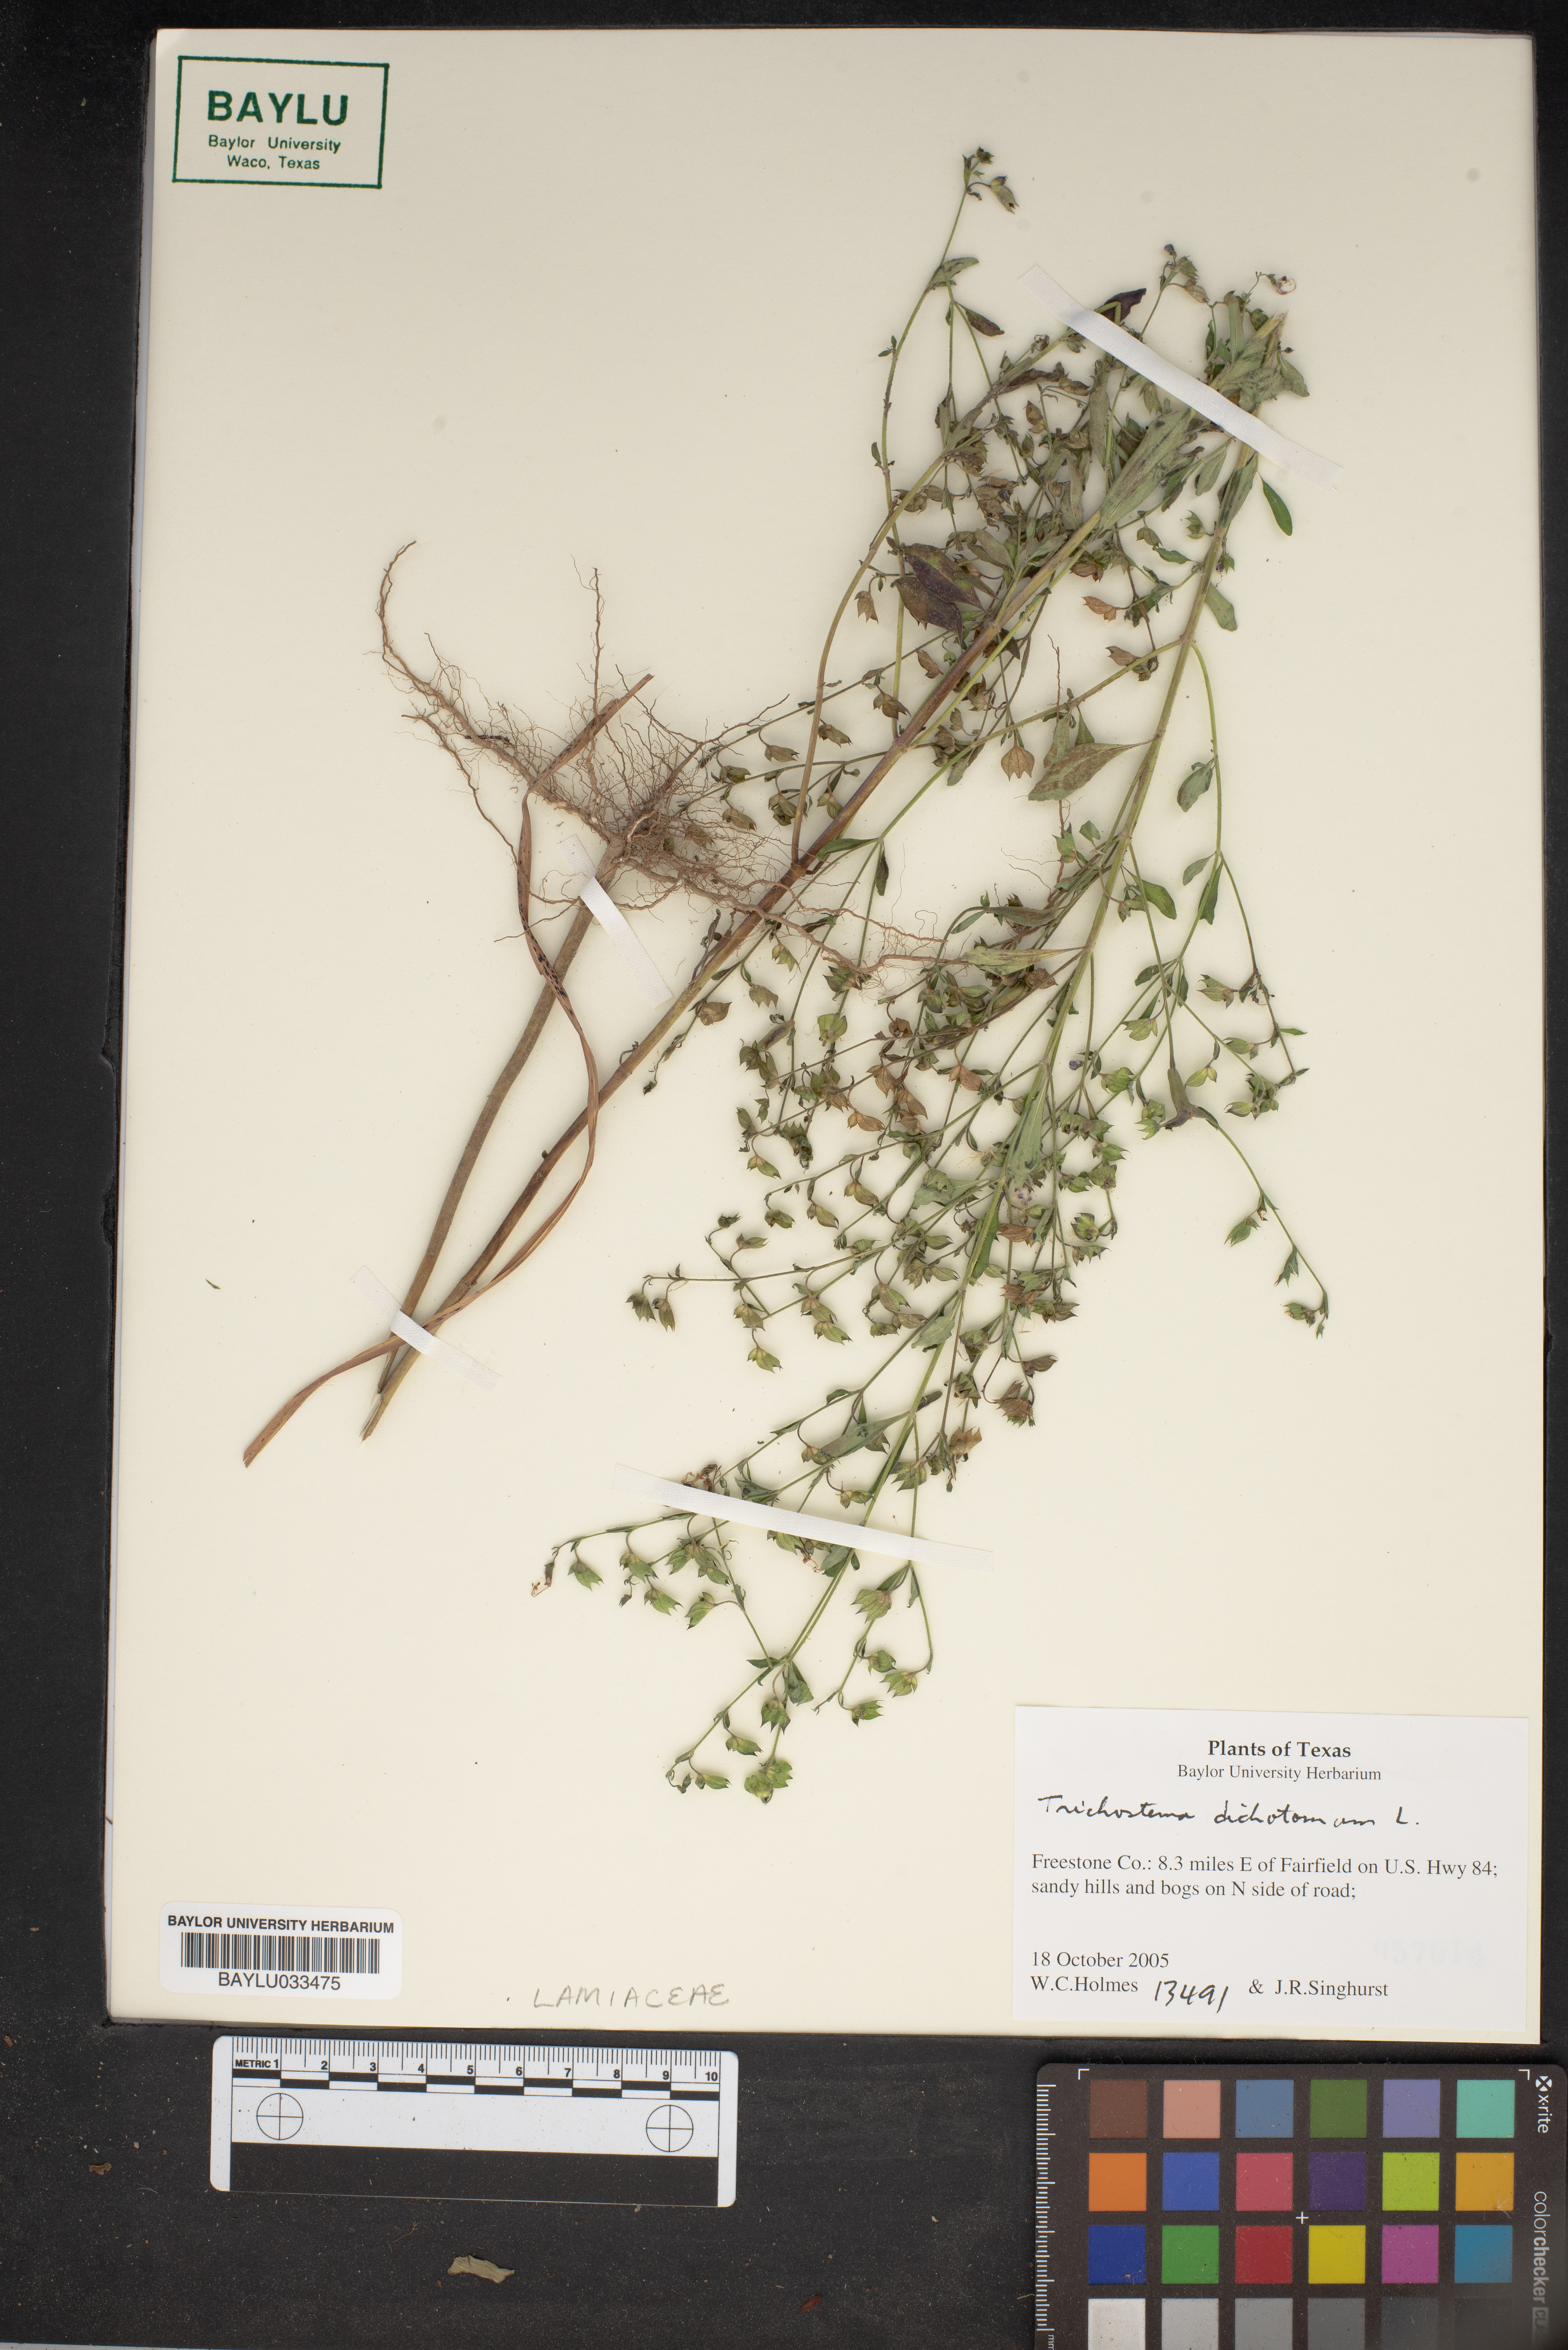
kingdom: Plantae
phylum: Tracheophyta
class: Magnoliopsida
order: Lamiales
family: Lamiaceae
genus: Trichostema
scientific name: Trichostema dichotomum
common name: Bastard pennyroyal
